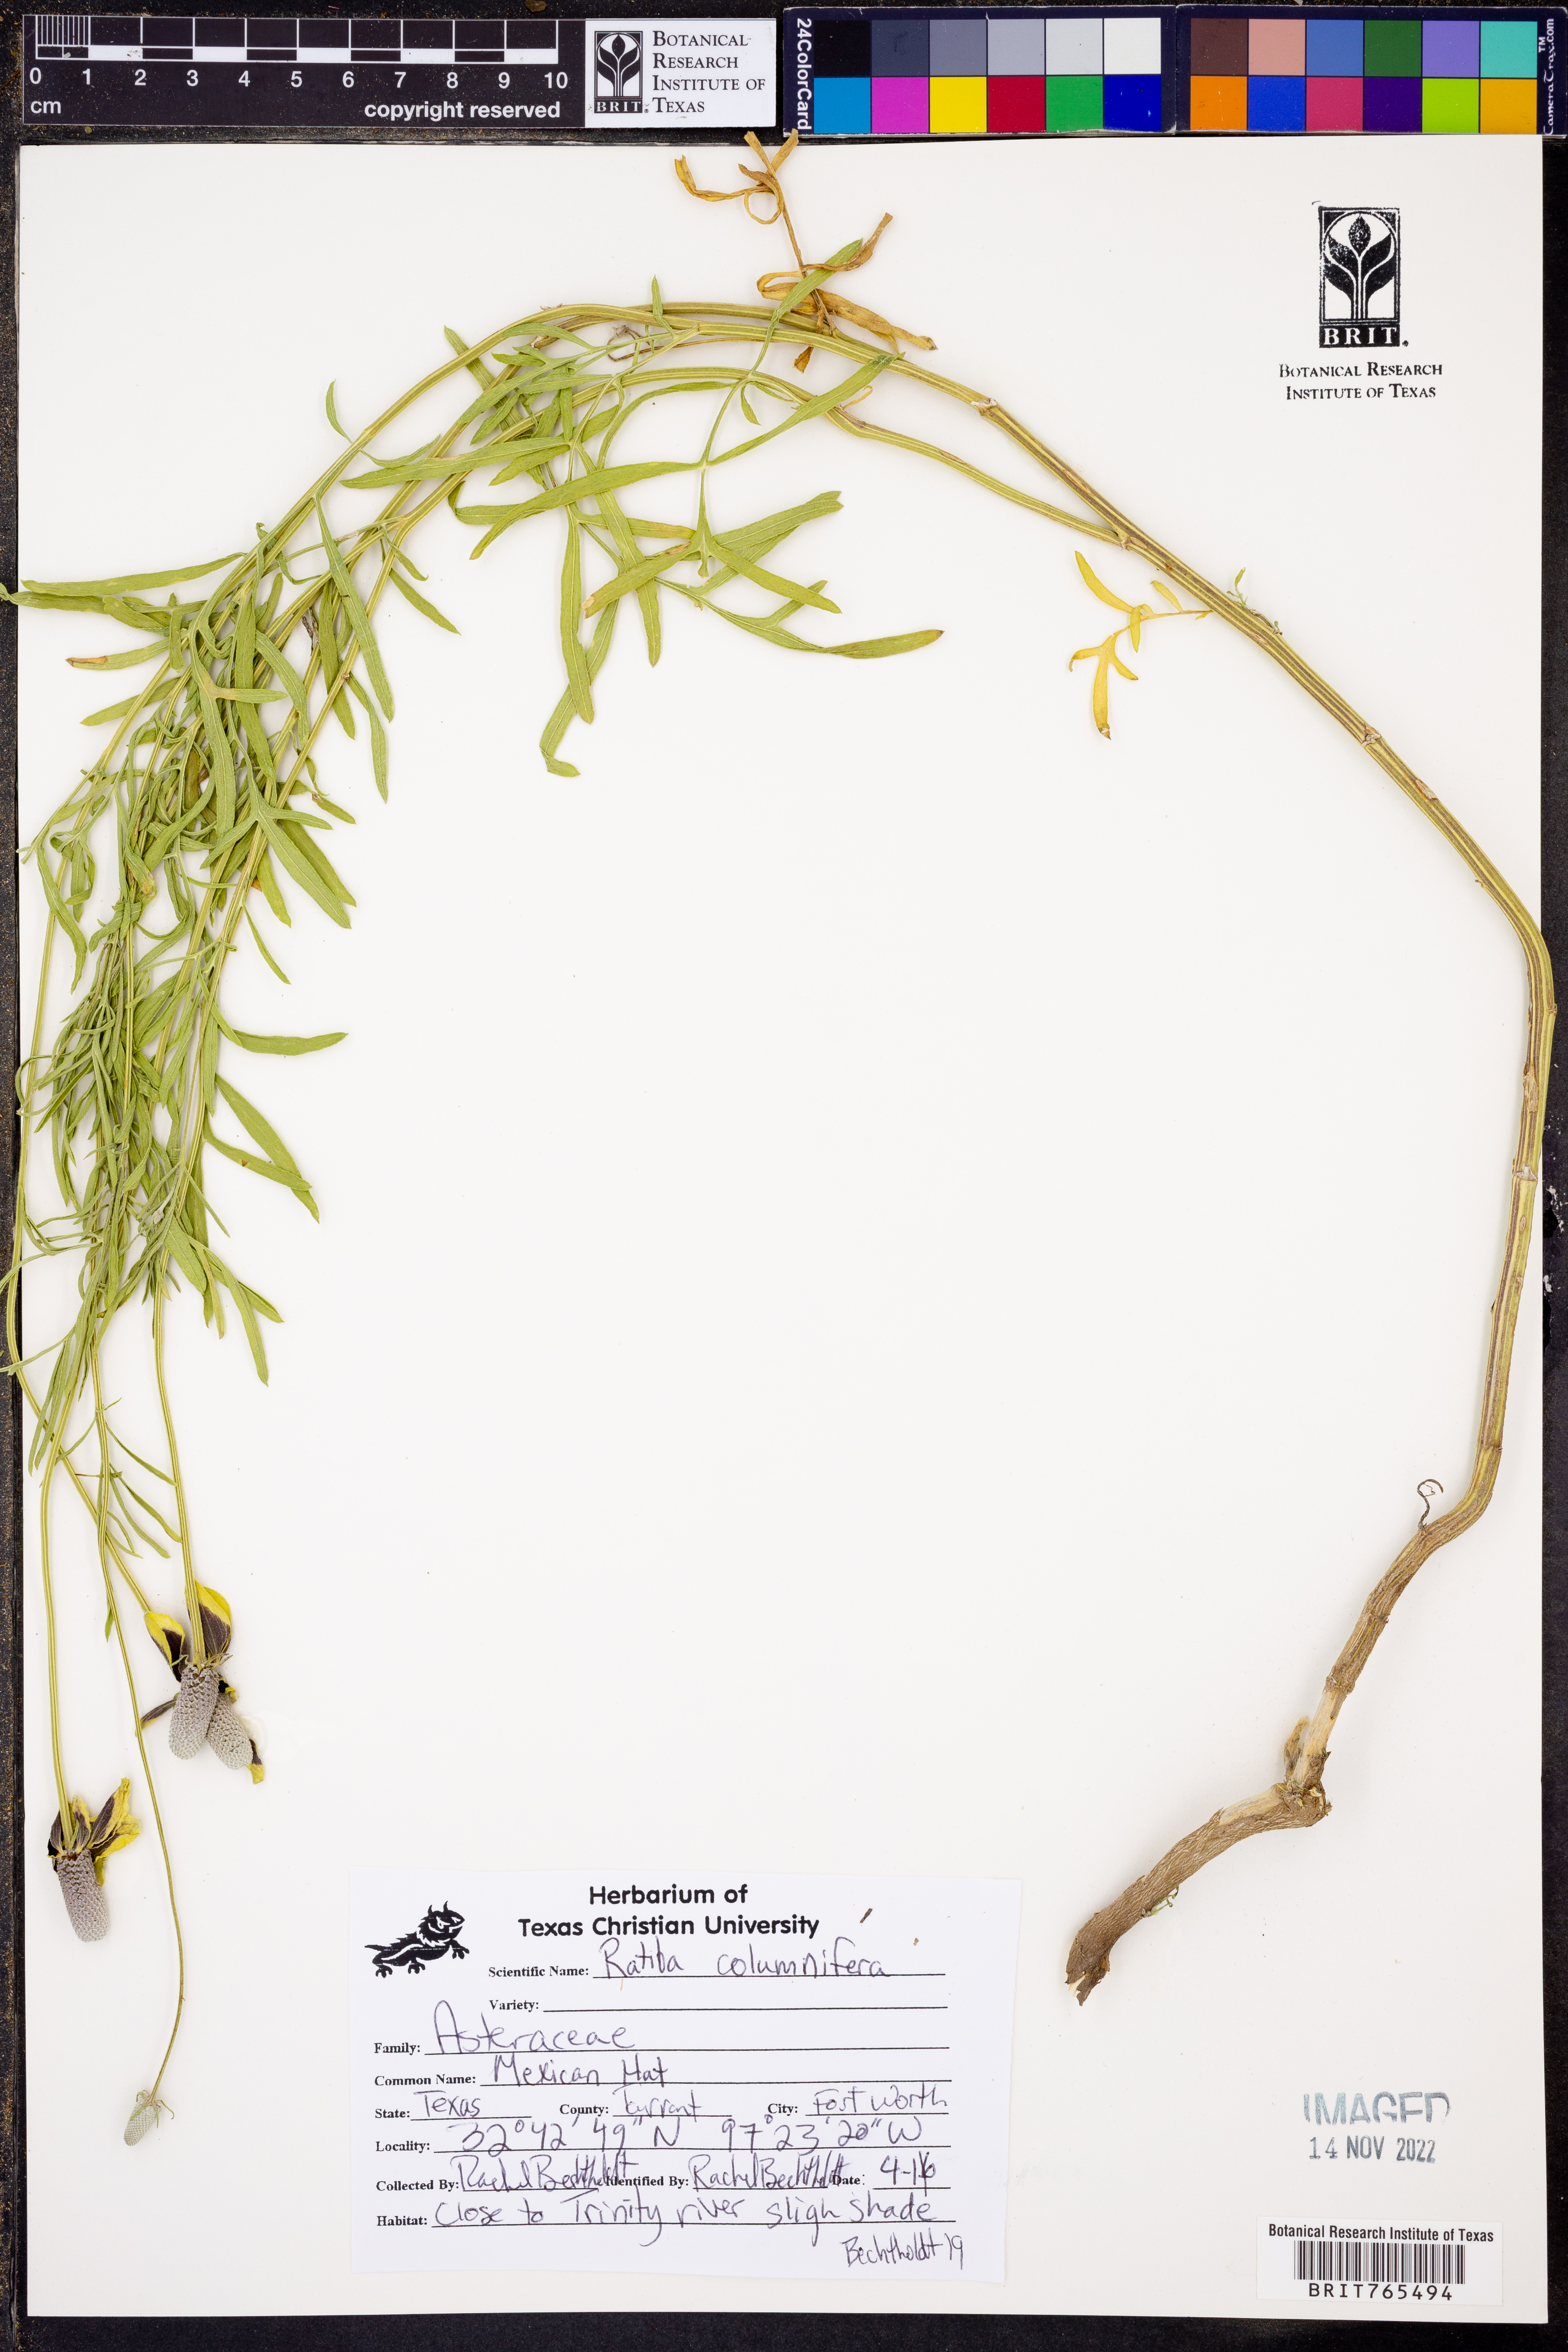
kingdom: Plantae
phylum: Tracheophyta
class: Magnoliopsida
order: Asterales
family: Asteraceae
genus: Ratibida
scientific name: Ratibida columnifera
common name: Prairie coneflower
